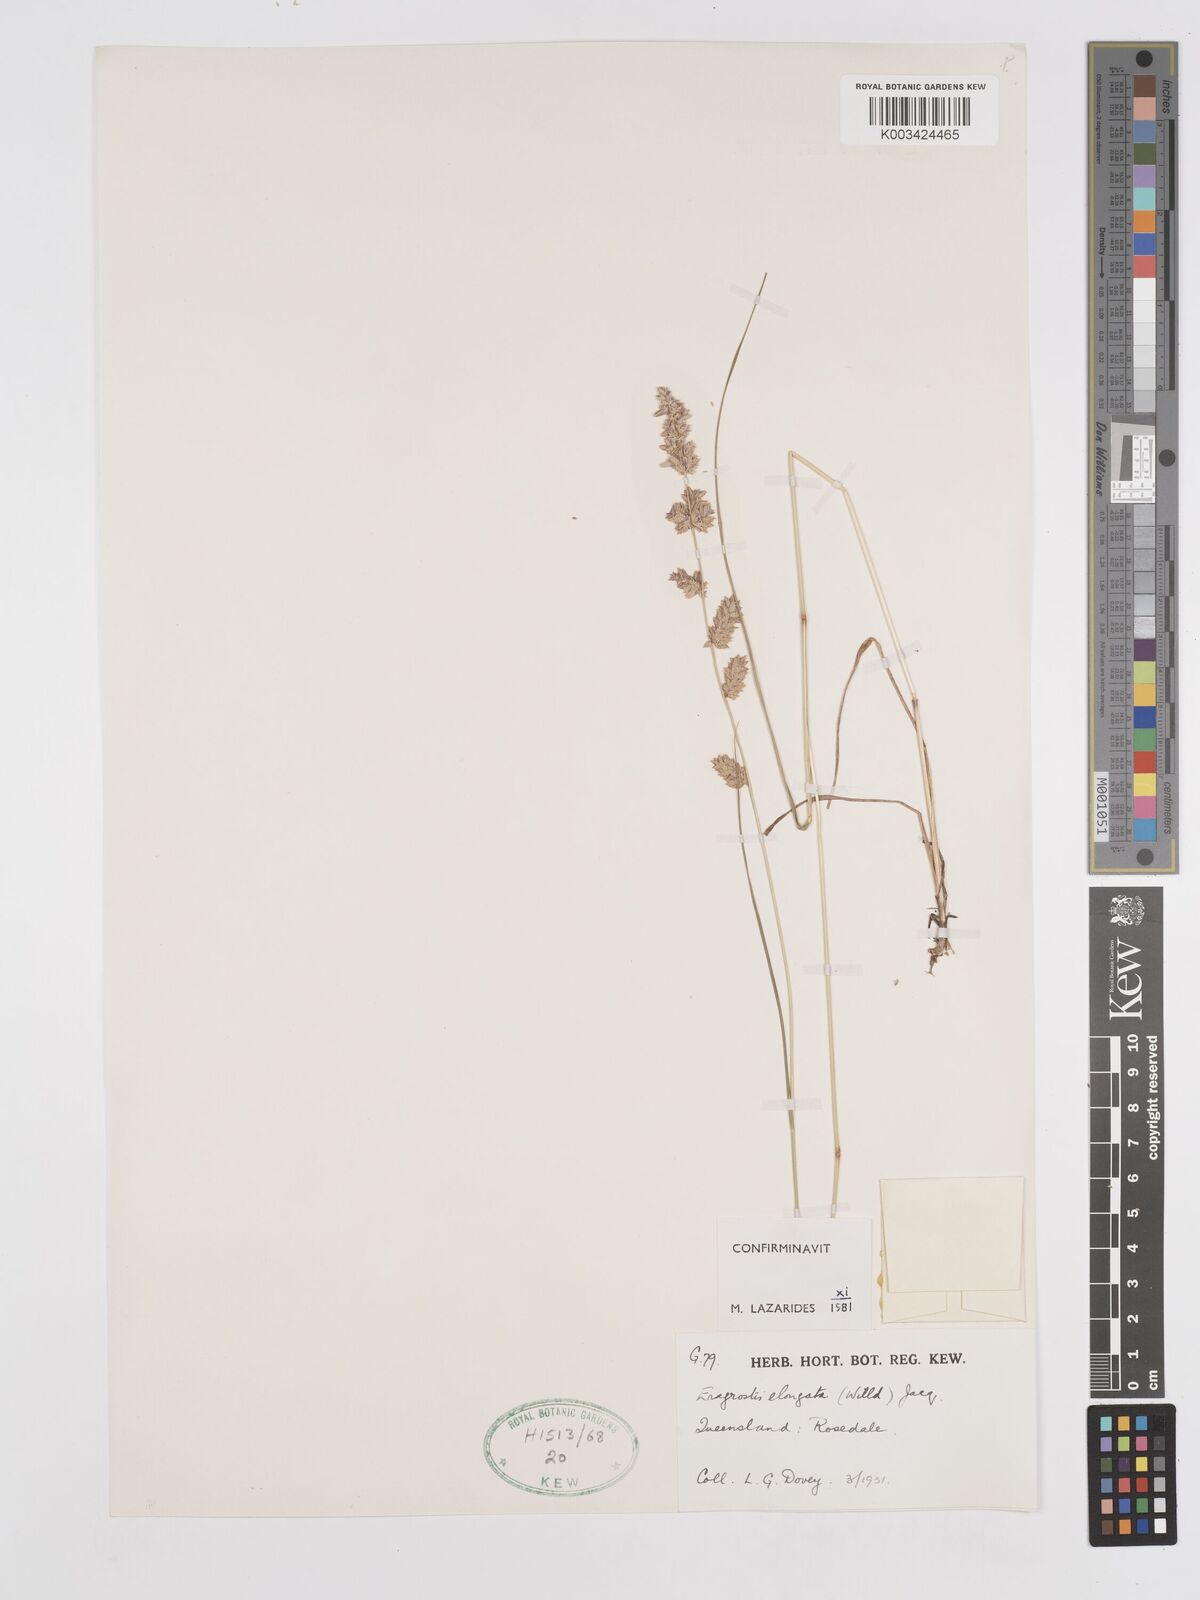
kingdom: Plantae
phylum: Tracheophyta
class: Liliopsida
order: Poales
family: Poaceae
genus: Eragrostis
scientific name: Eragrostis elongata
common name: Long lovegrass
